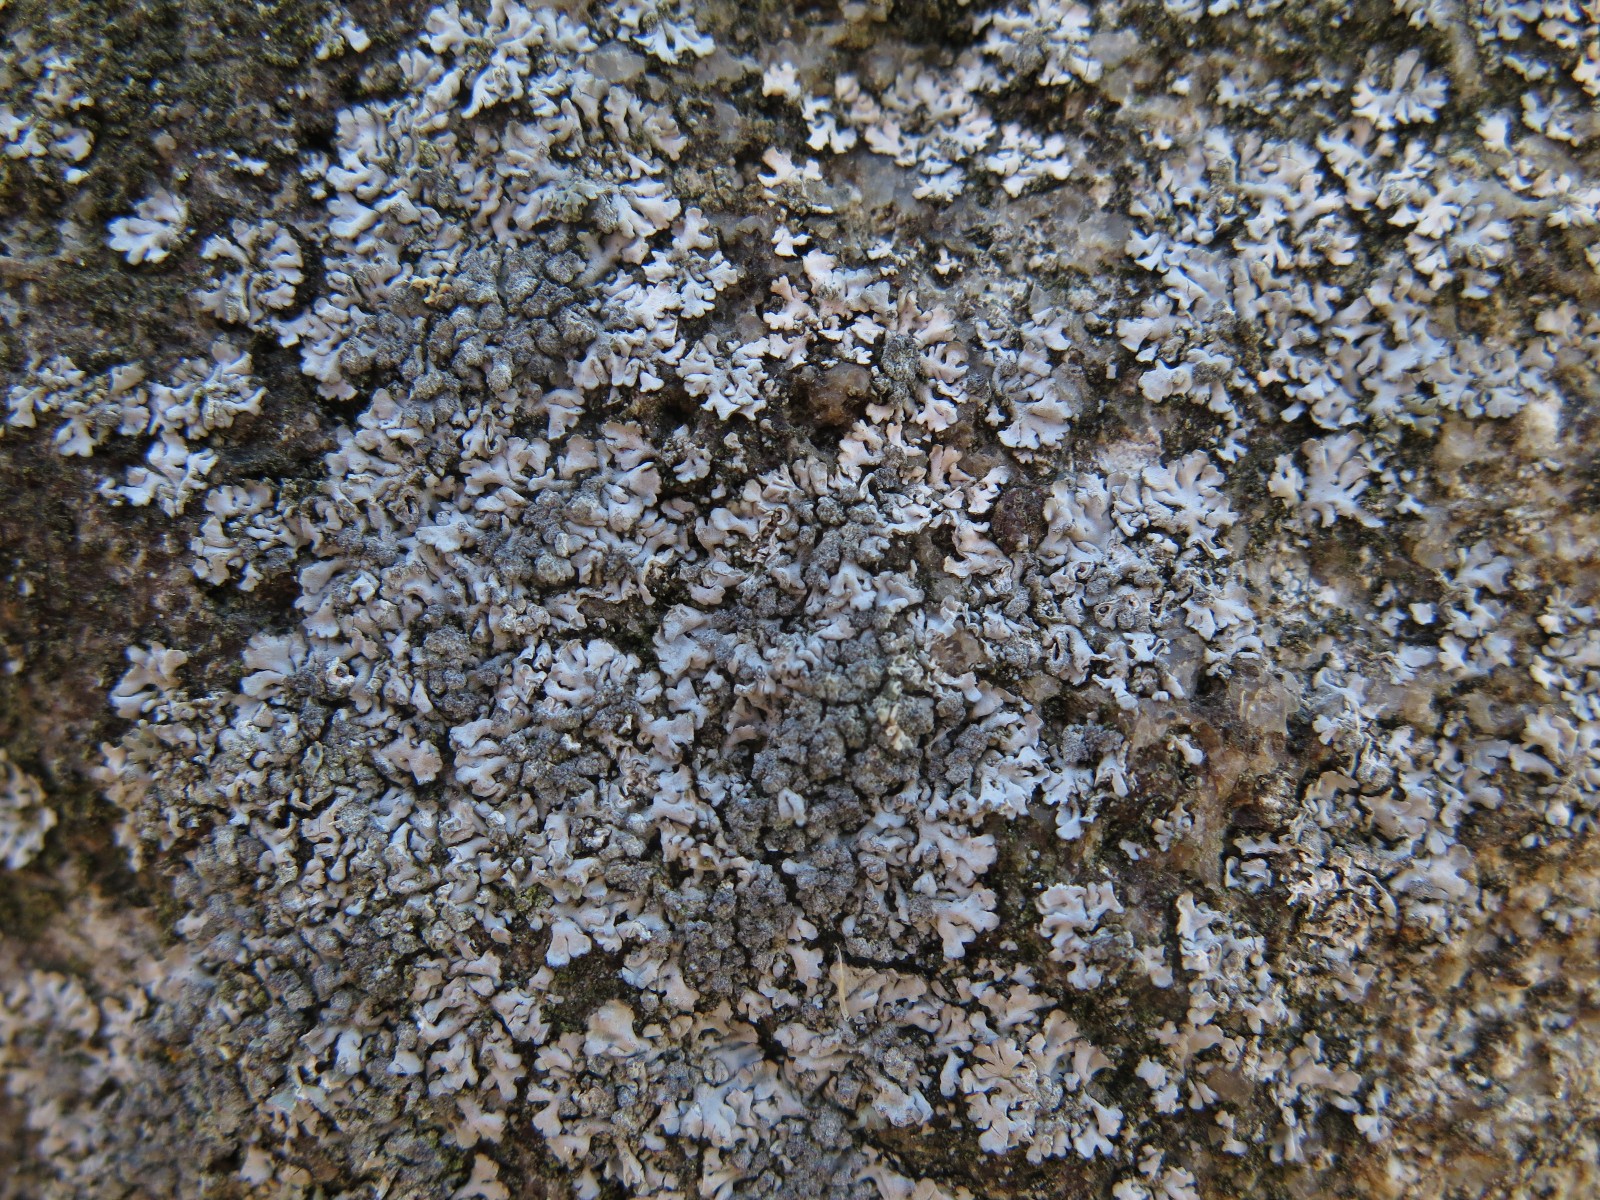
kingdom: Fungi
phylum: Ascomycota
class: Lecanoromycetes
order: Caliciales
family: Physciaceae
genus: Physcia
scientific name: Physcia caesia
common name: blågrå rosetlav
